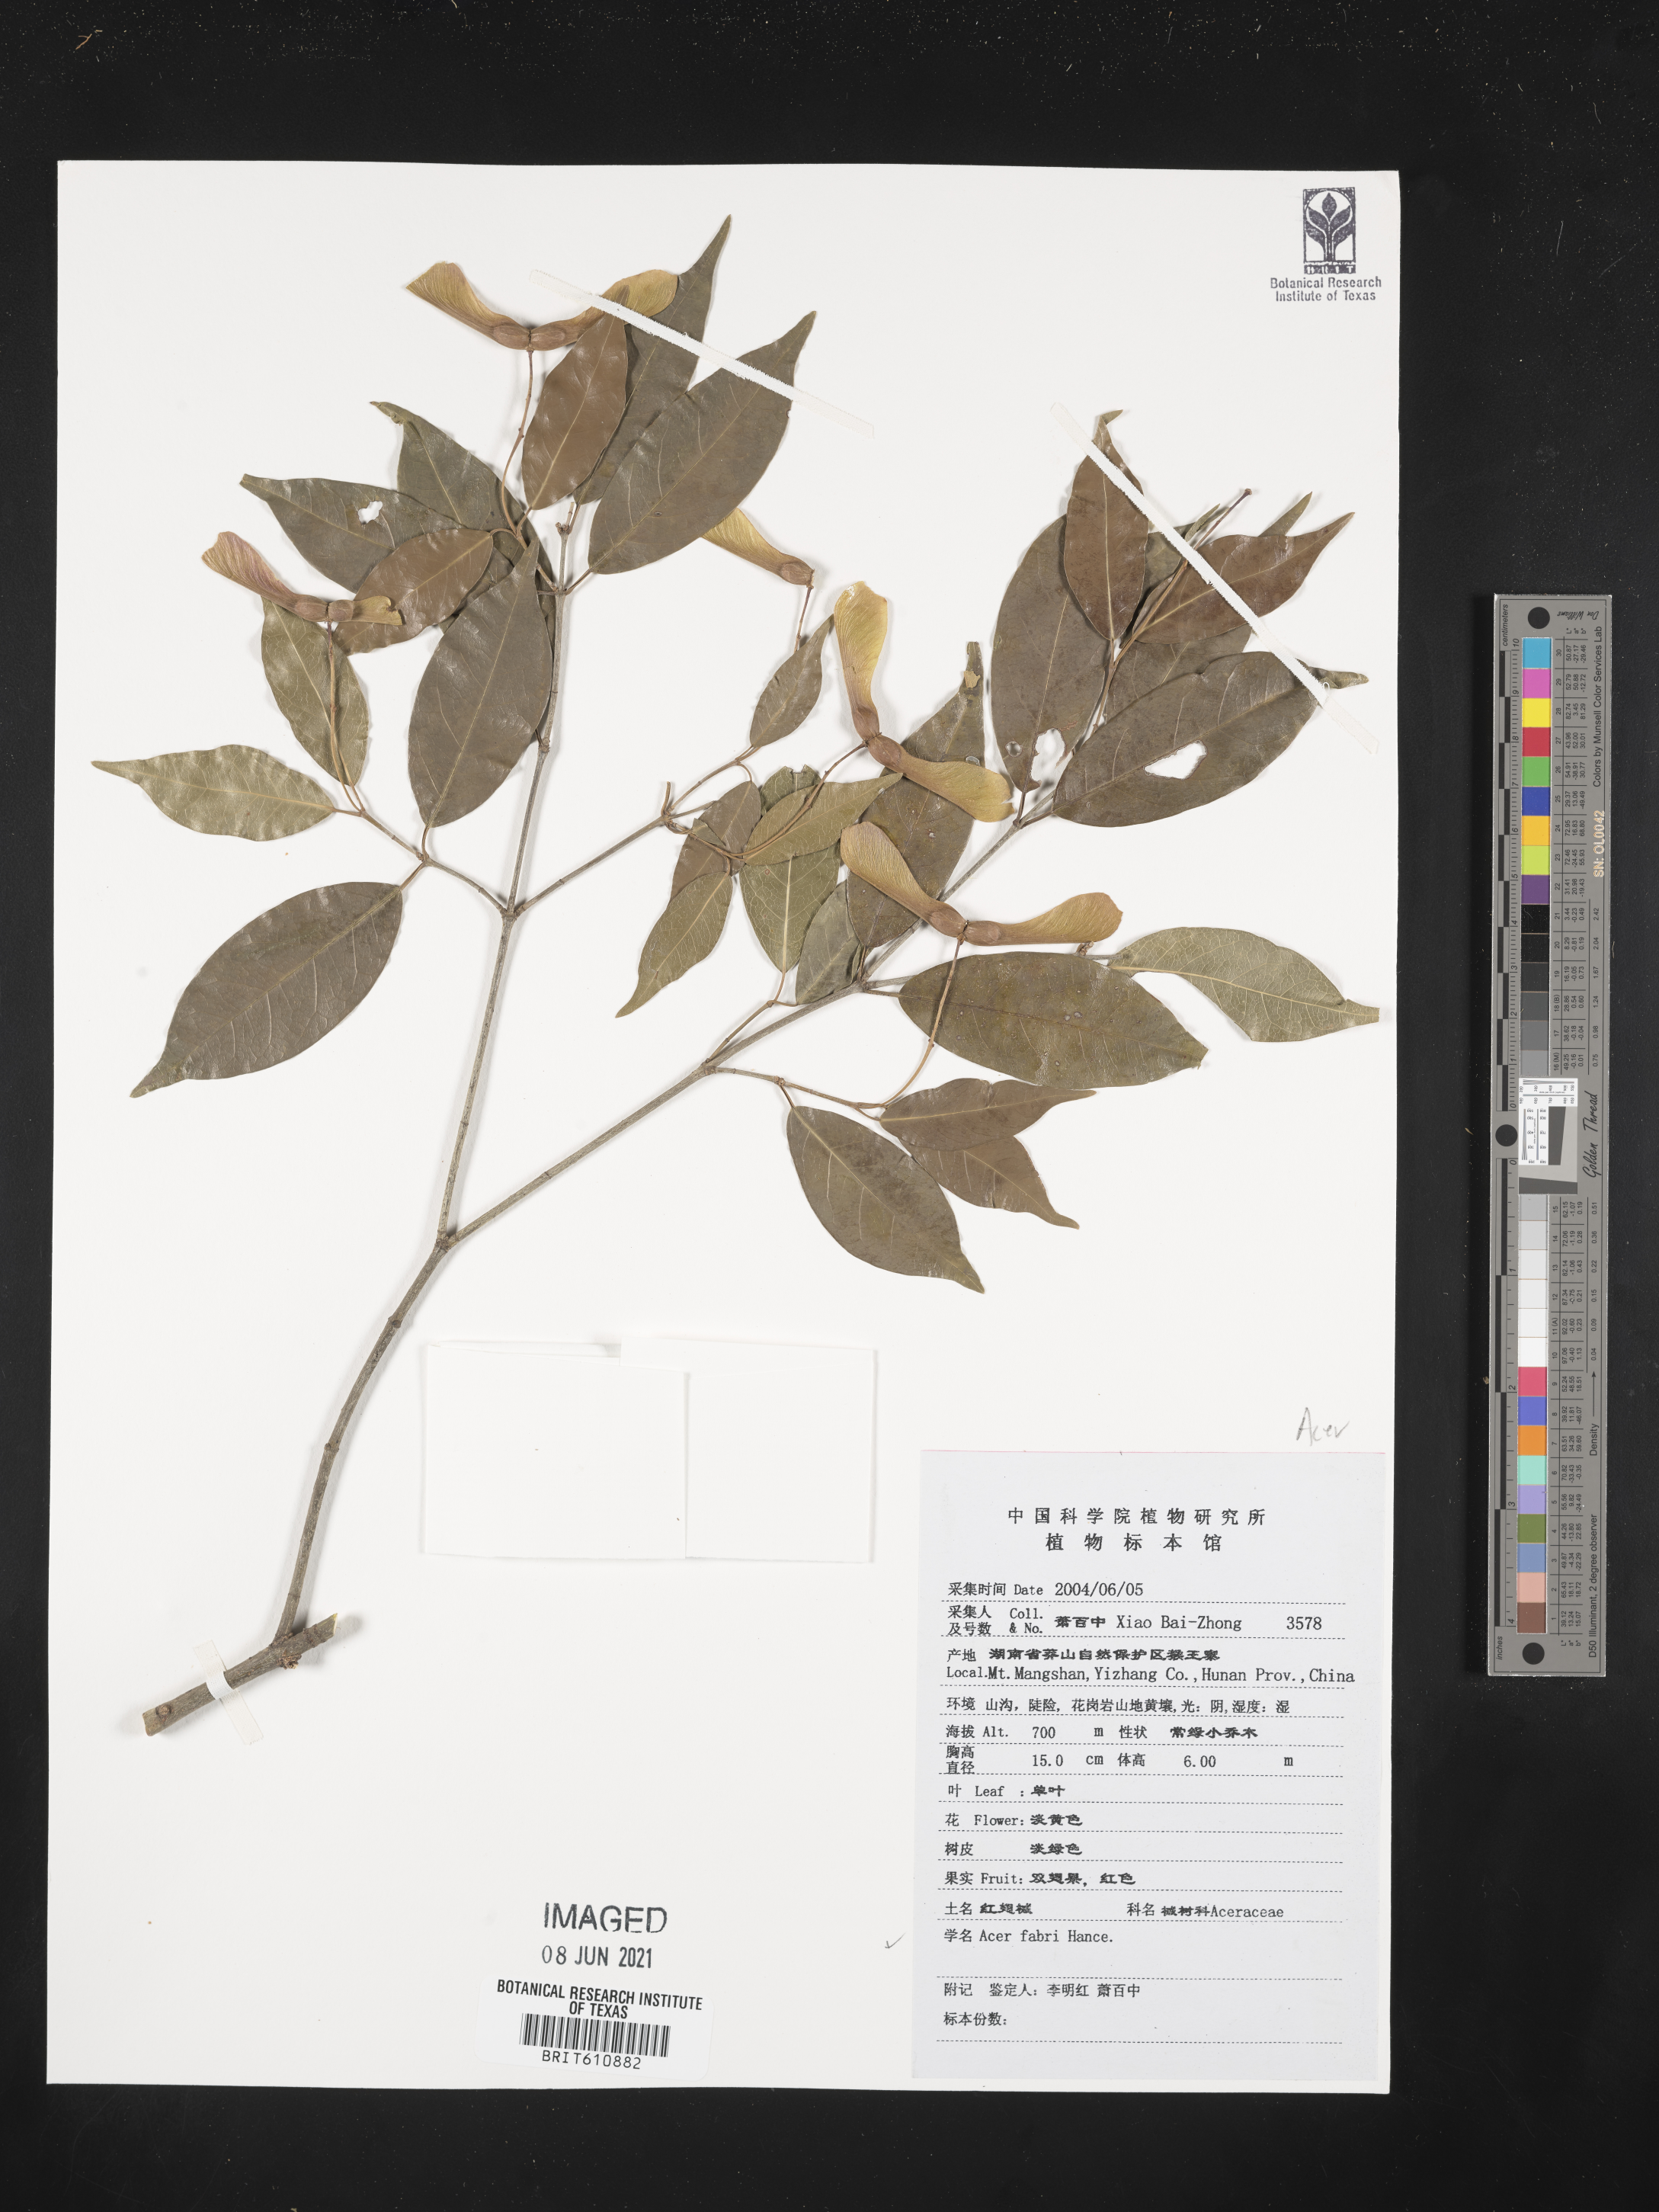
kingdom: Plantae
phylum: Tracheophyta
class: Magnoliopsida
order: Sapindales
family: Sapindaceae
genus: Acer
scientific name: Acer fabri
